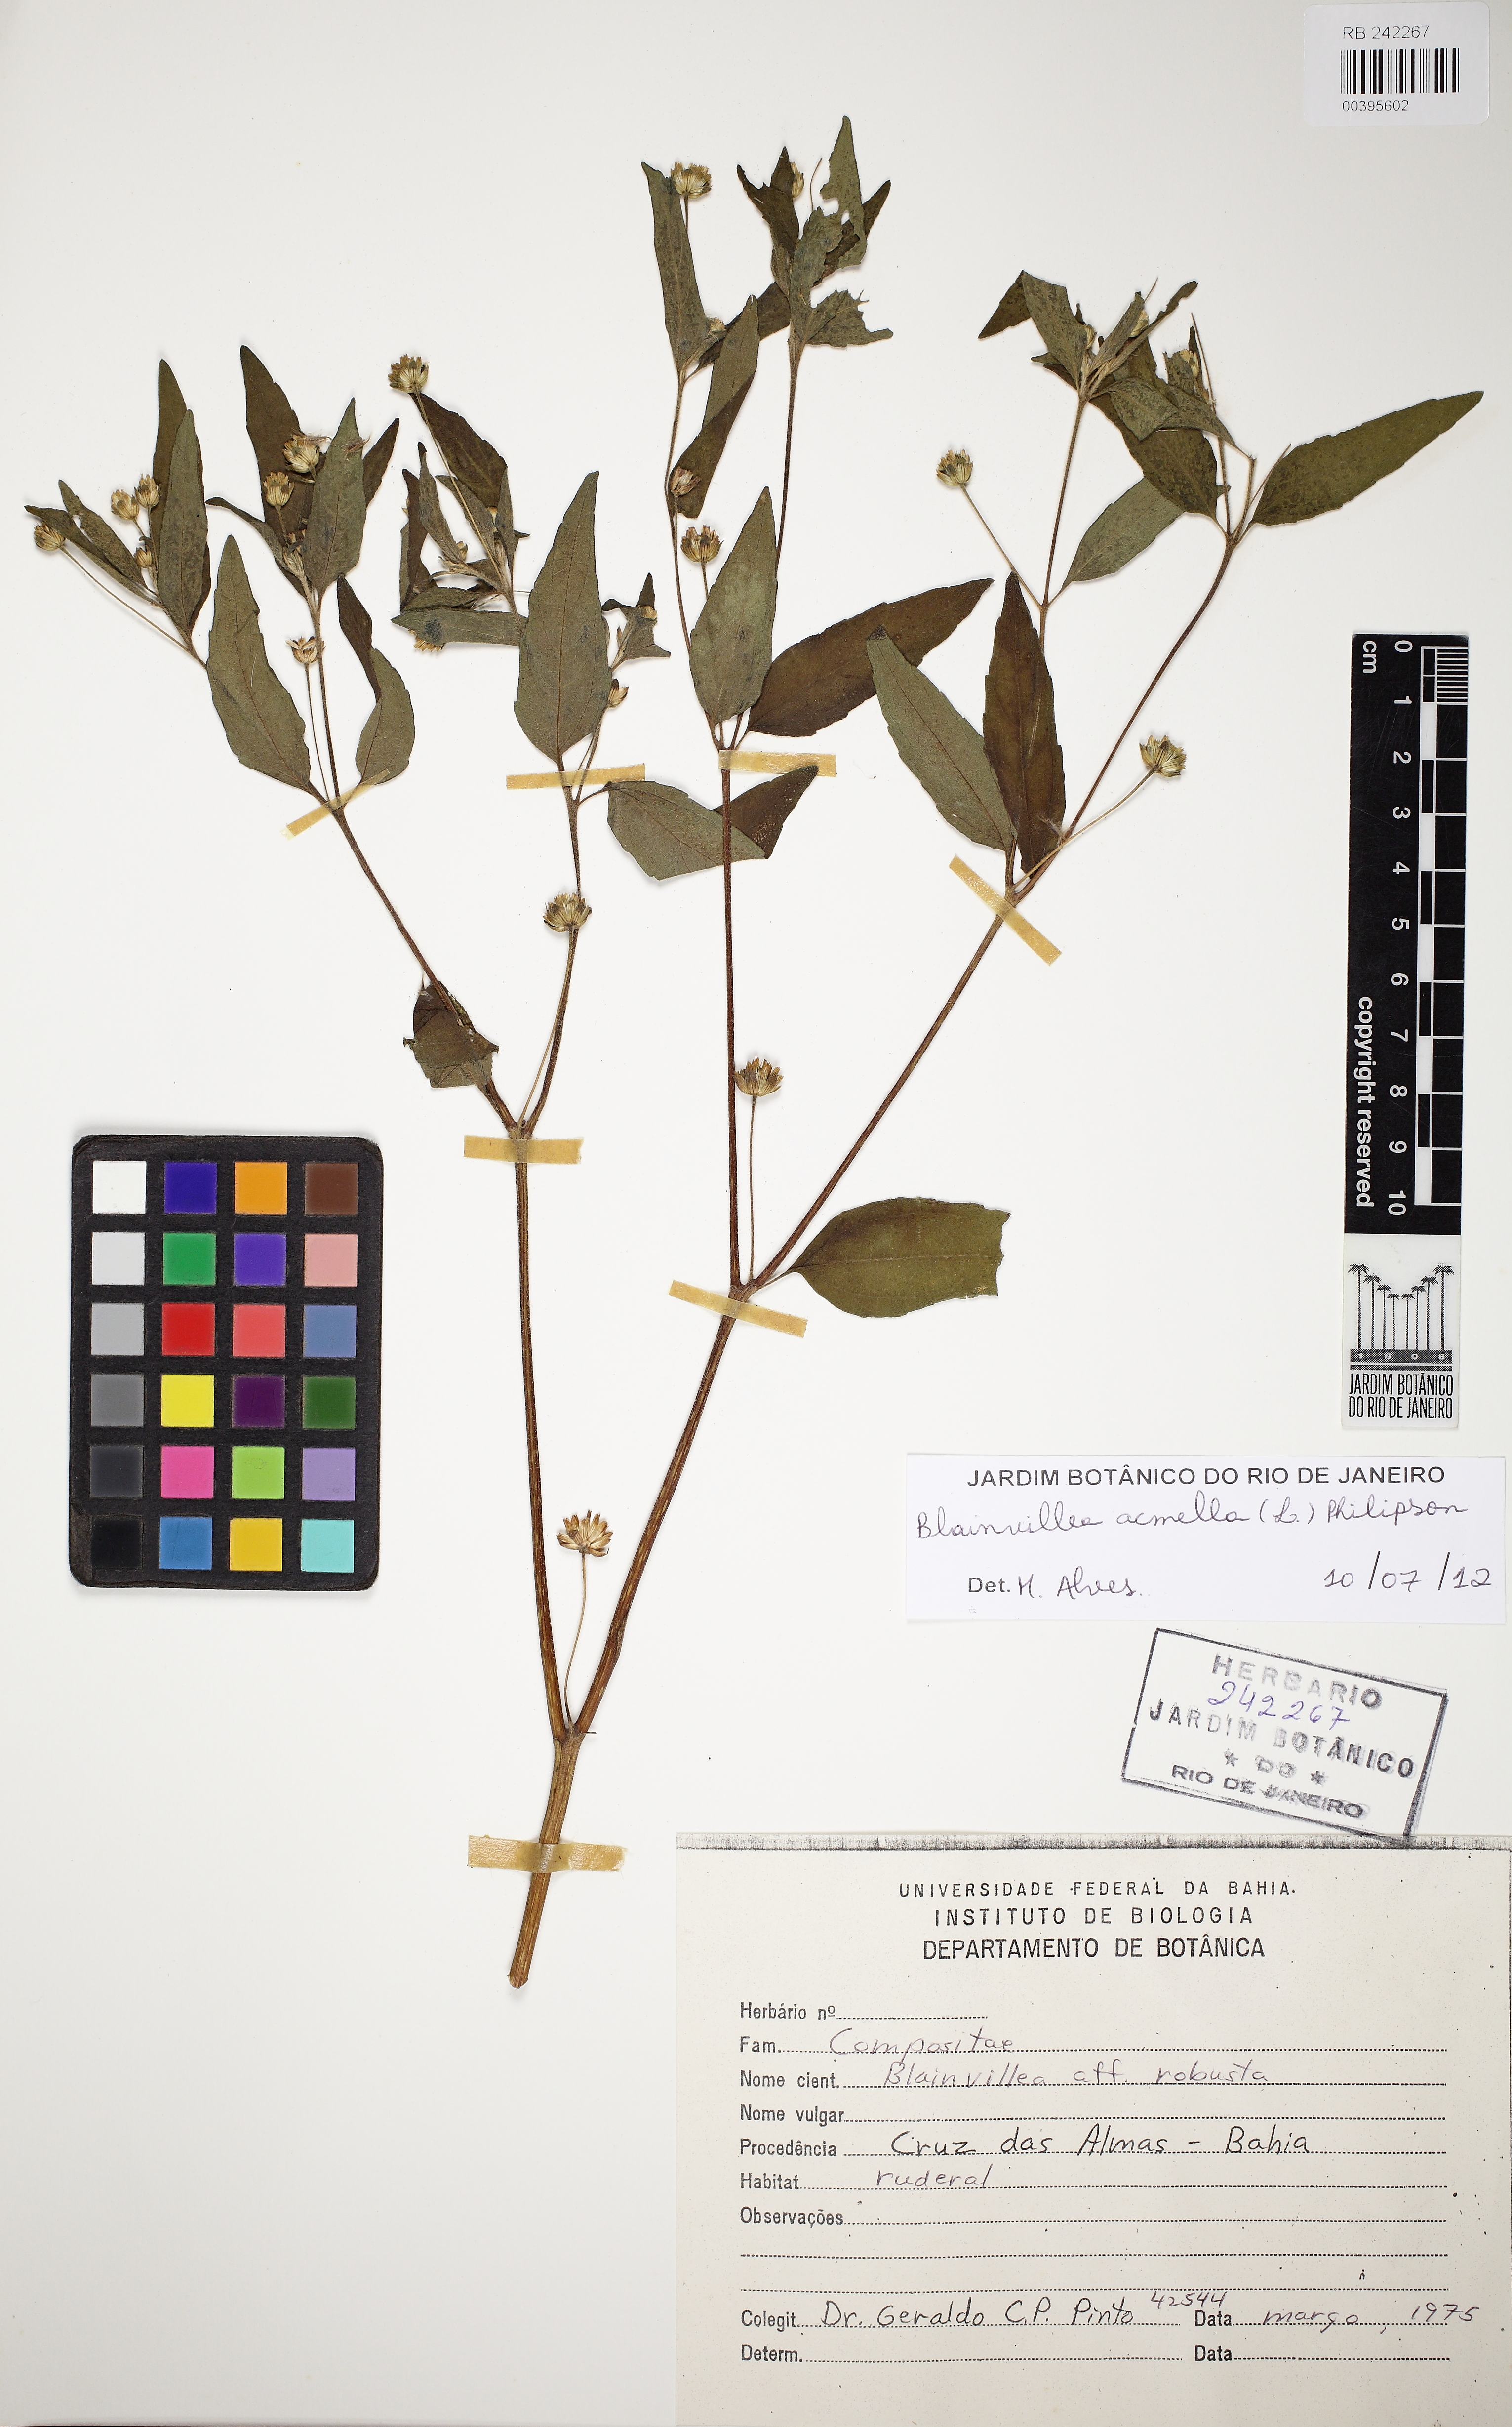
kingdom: Plantae
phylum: Tracheophyta
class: Magnoliopsida
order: Asterales
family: Asteraceae
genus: Blainvillea
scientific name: Blainvillea acmella
